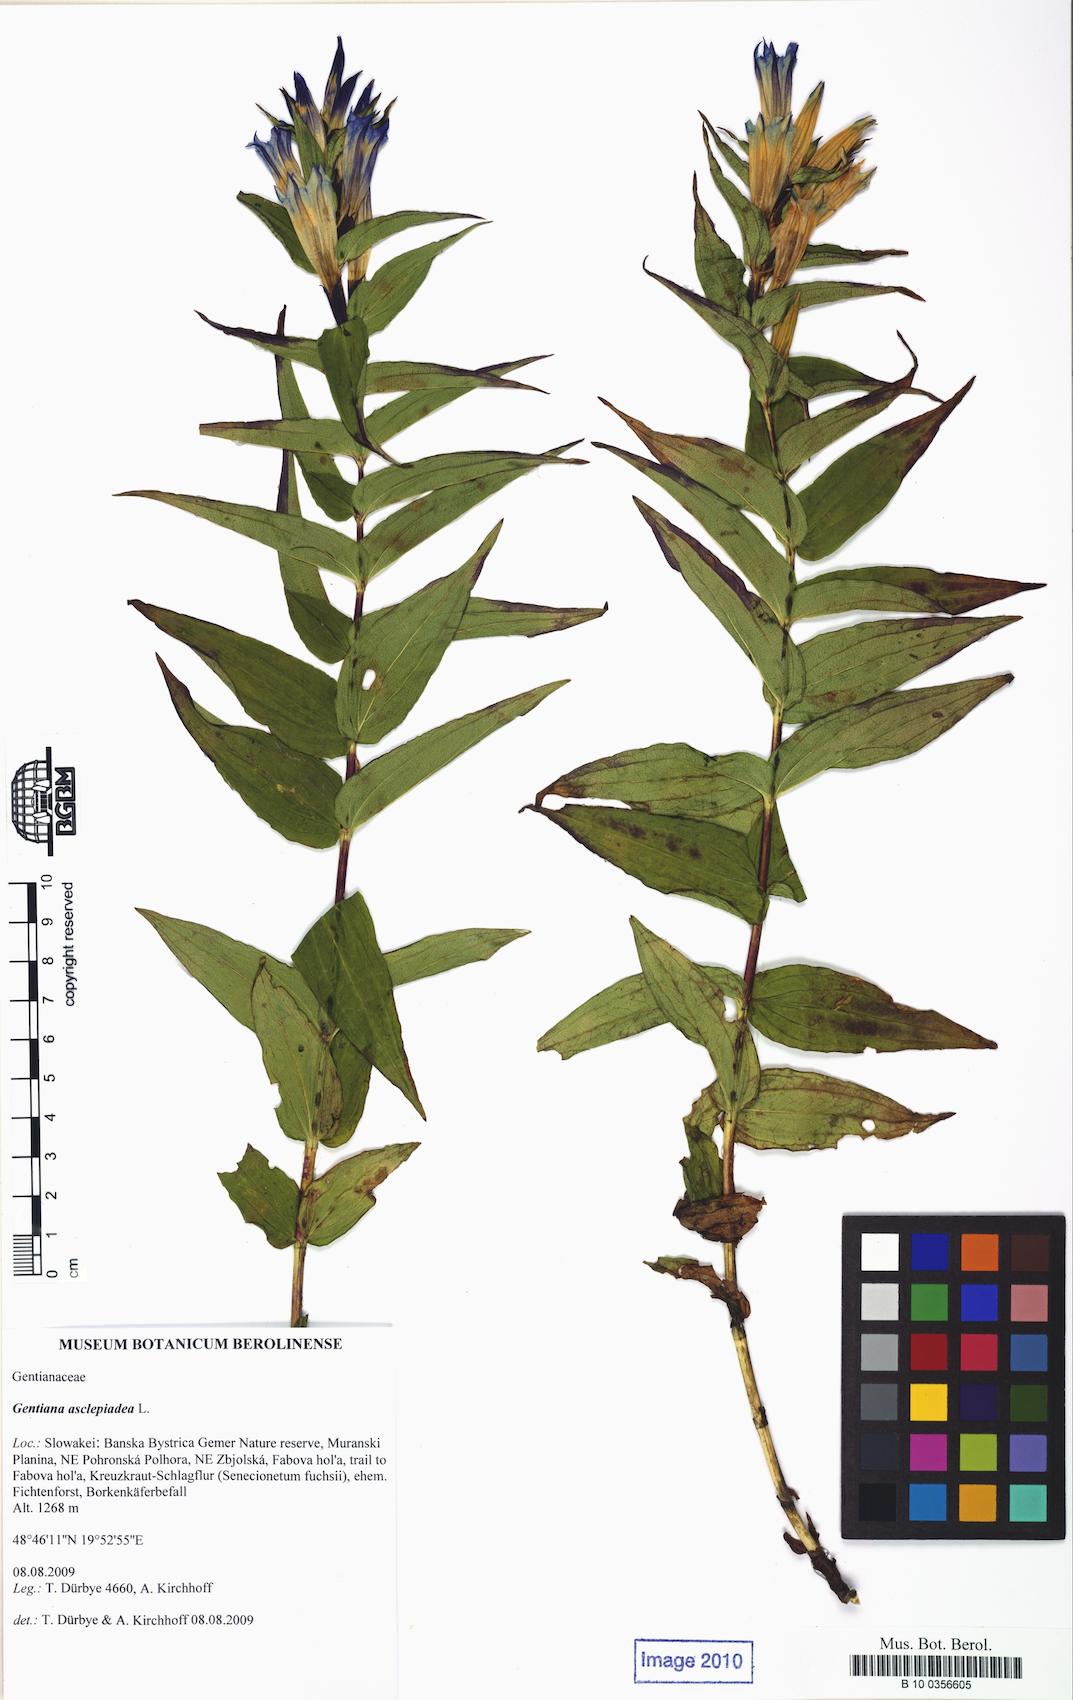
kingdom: Plantae
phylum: Tracheophyta
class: Magnoliopsida
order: Gentianales
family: Gentianaceae
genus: Gentiana
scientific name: Gentiana asclepiadea
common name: Willow gentian
